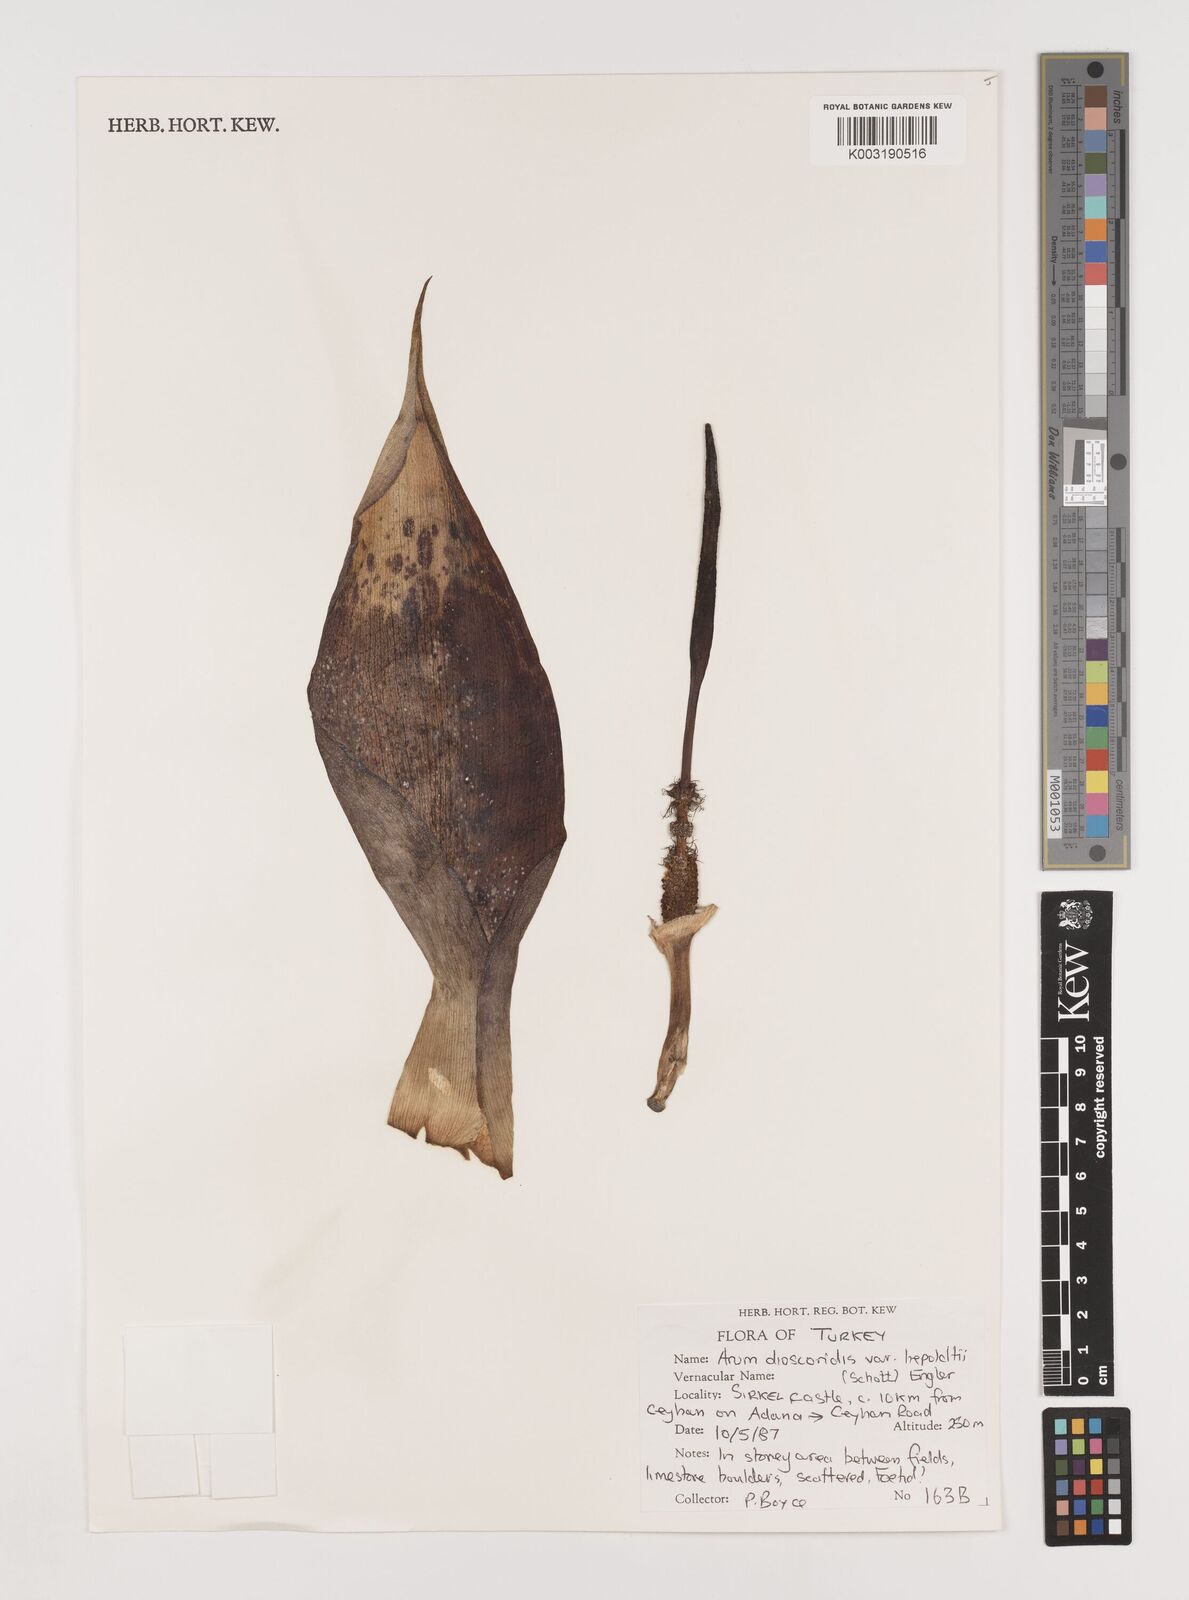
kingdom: Plantae
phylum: Tracheophyta
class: Liliopsida
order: Alismatales
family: Araceae
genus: Arum
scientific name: Arum dioscoridis
